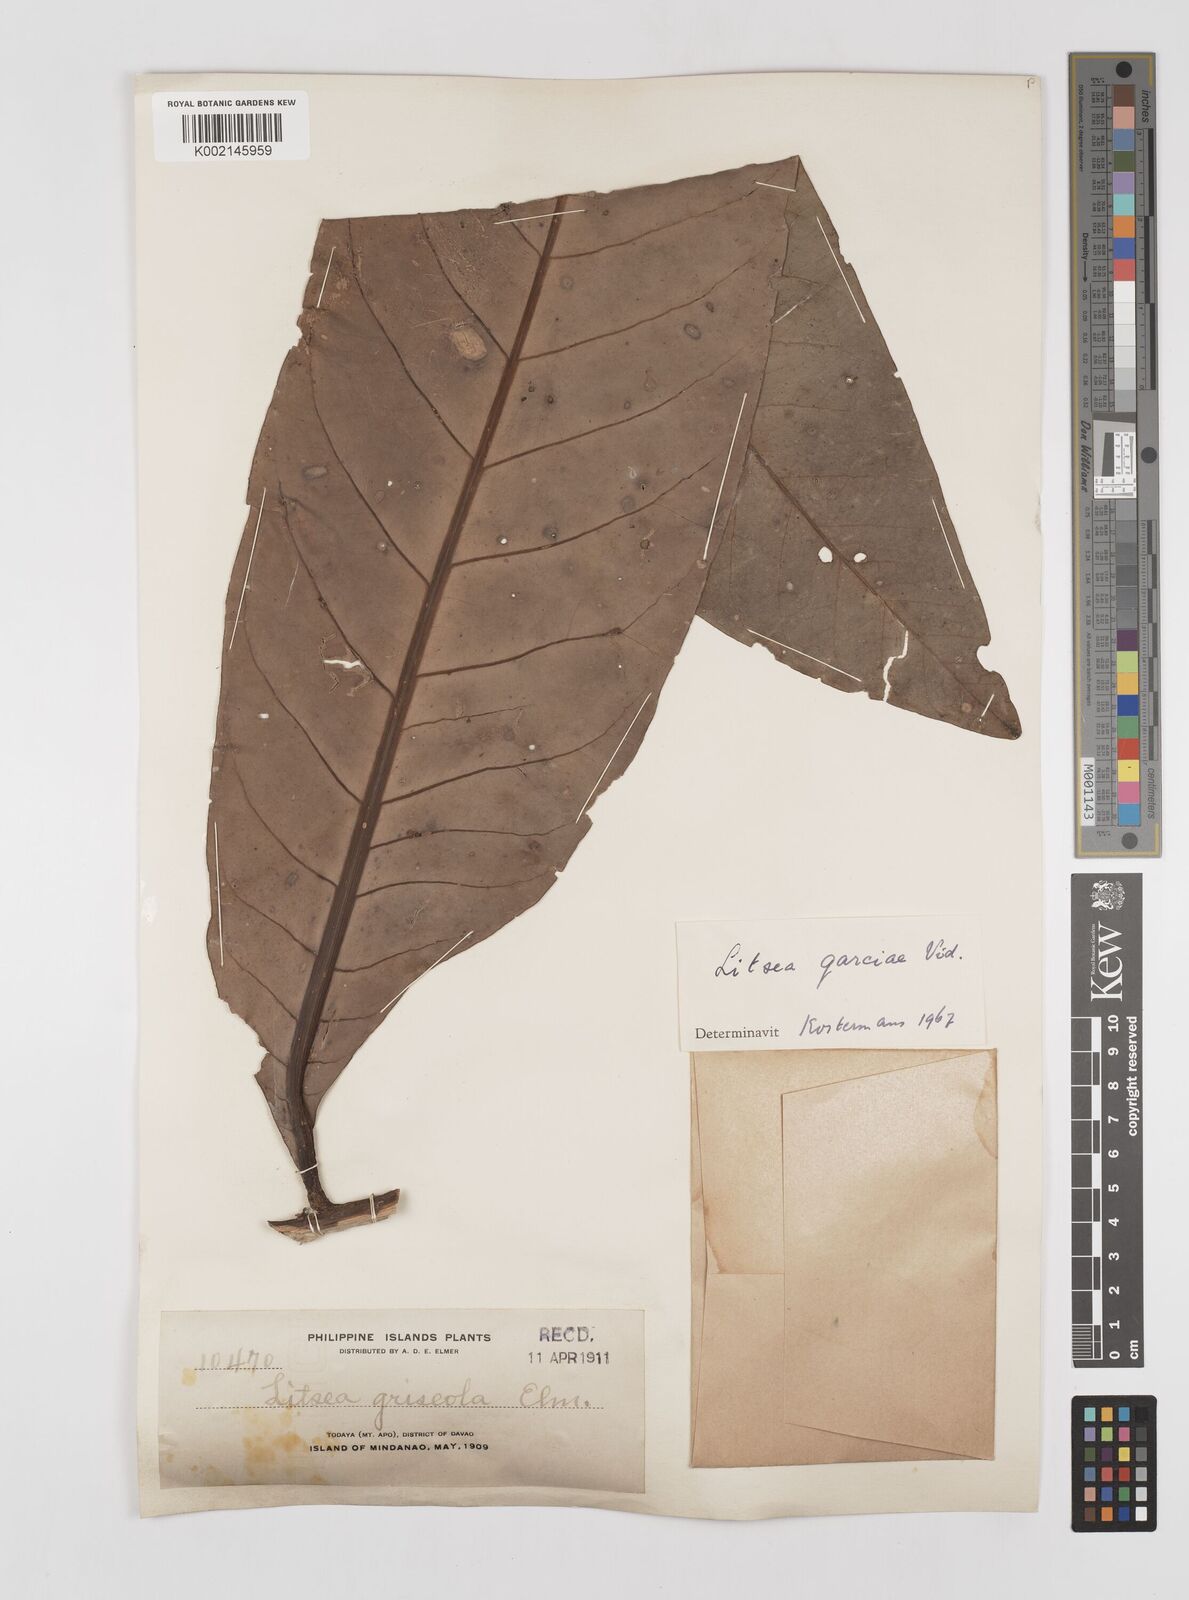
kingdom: Plantae
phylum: Tracheophyta
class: Magnoliopsida
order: Laurales
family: Lauraceae
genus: Litsea
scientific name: Litsea garciae
